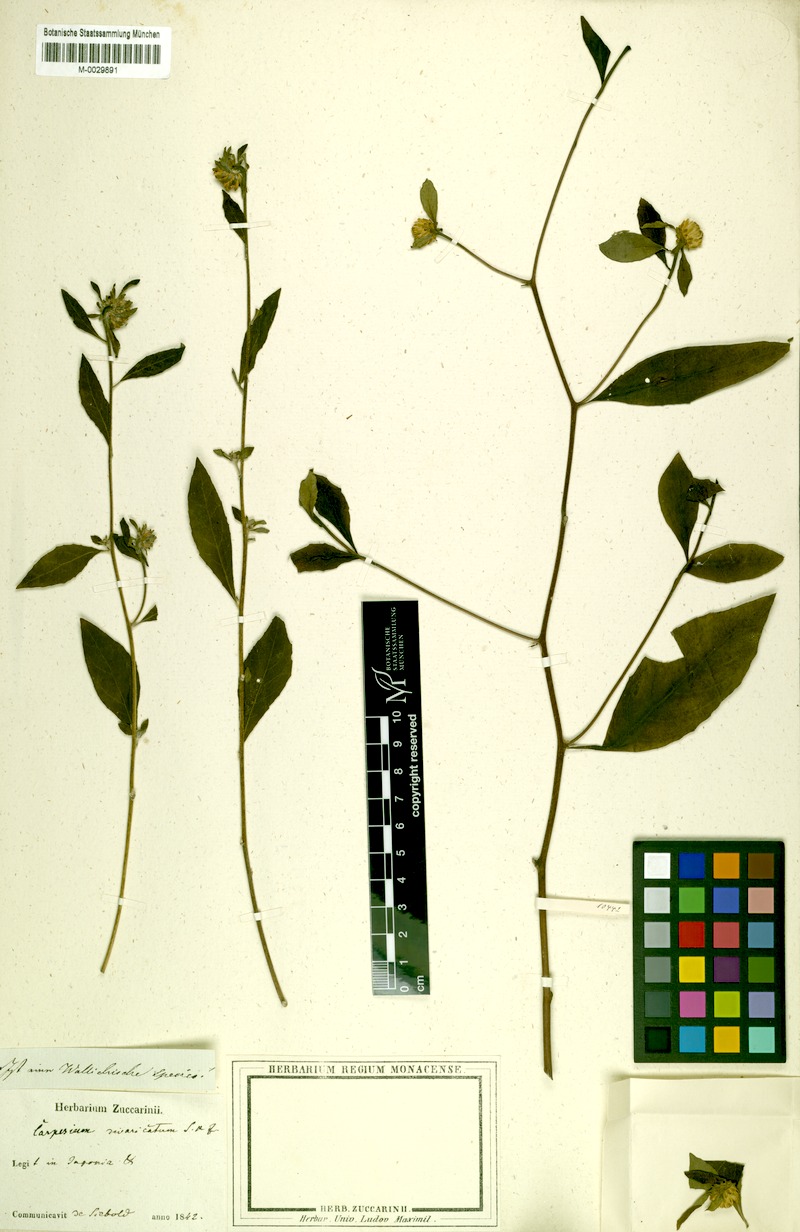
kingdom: Plantae
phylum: Tracheophyta
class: Magnoliopsida
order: Asterales
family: Asteraceae
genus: Carpesium
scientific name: Carpesium divaricatum
